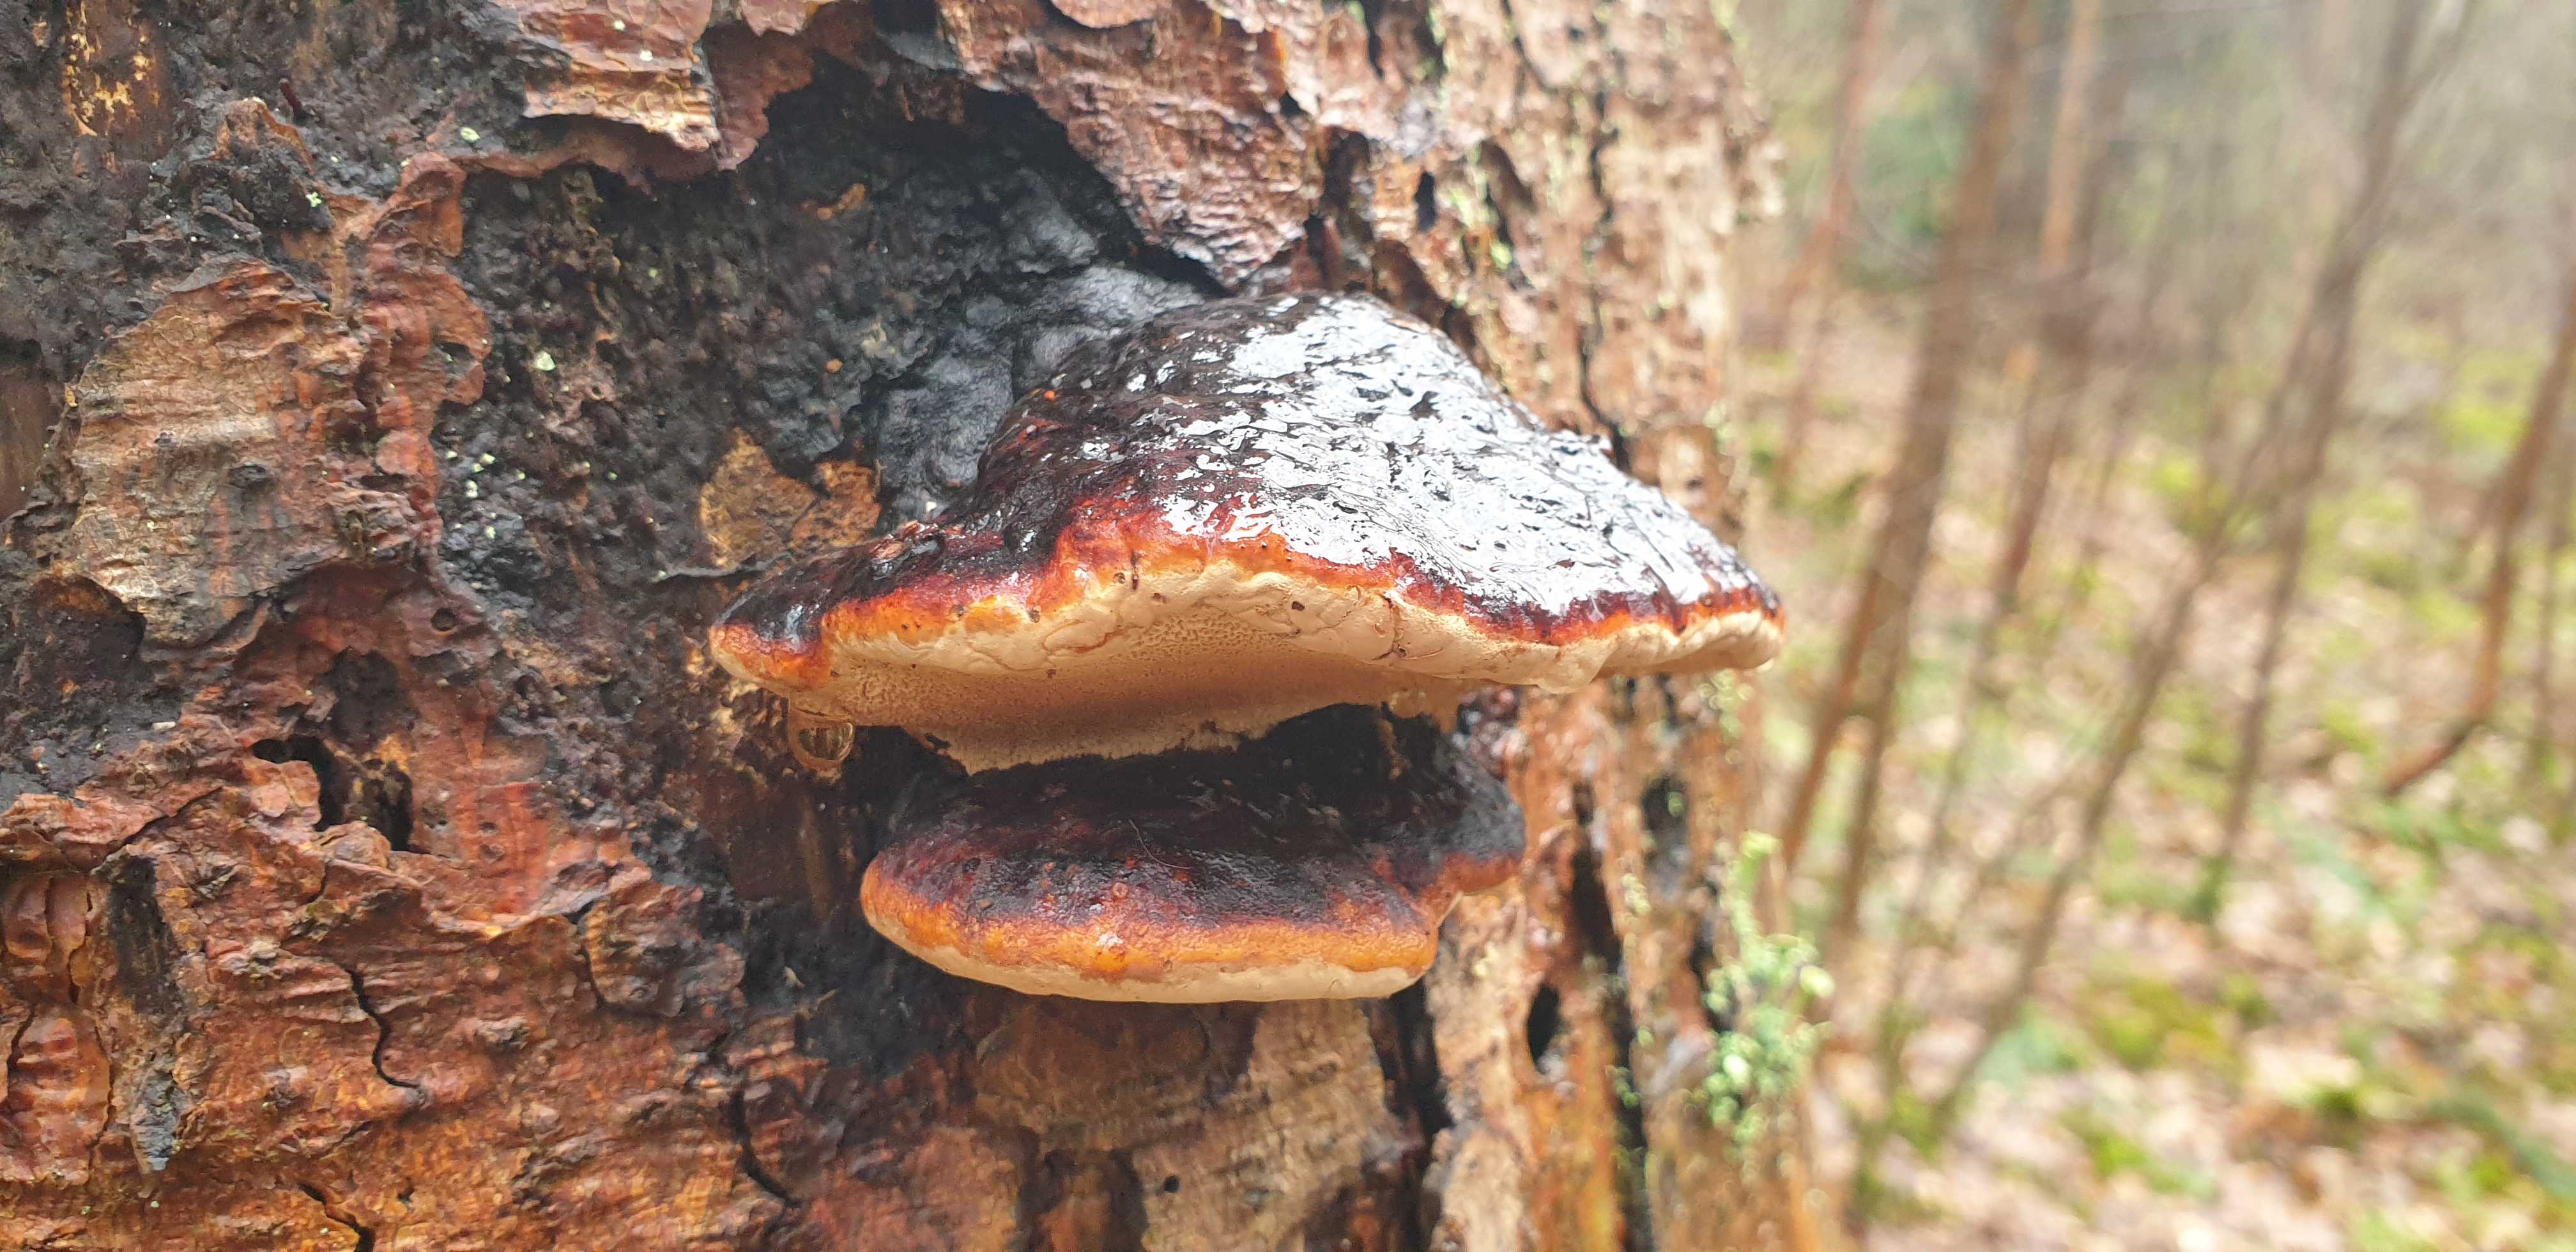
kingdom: Fungi
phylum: Basidiomycota
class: Agaricomycetes
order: Polyporales
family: Fomitopsidaceae
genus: Fomitopsis
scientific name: Fomitopsis pinicola
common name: randbæltet hovporesvamp
